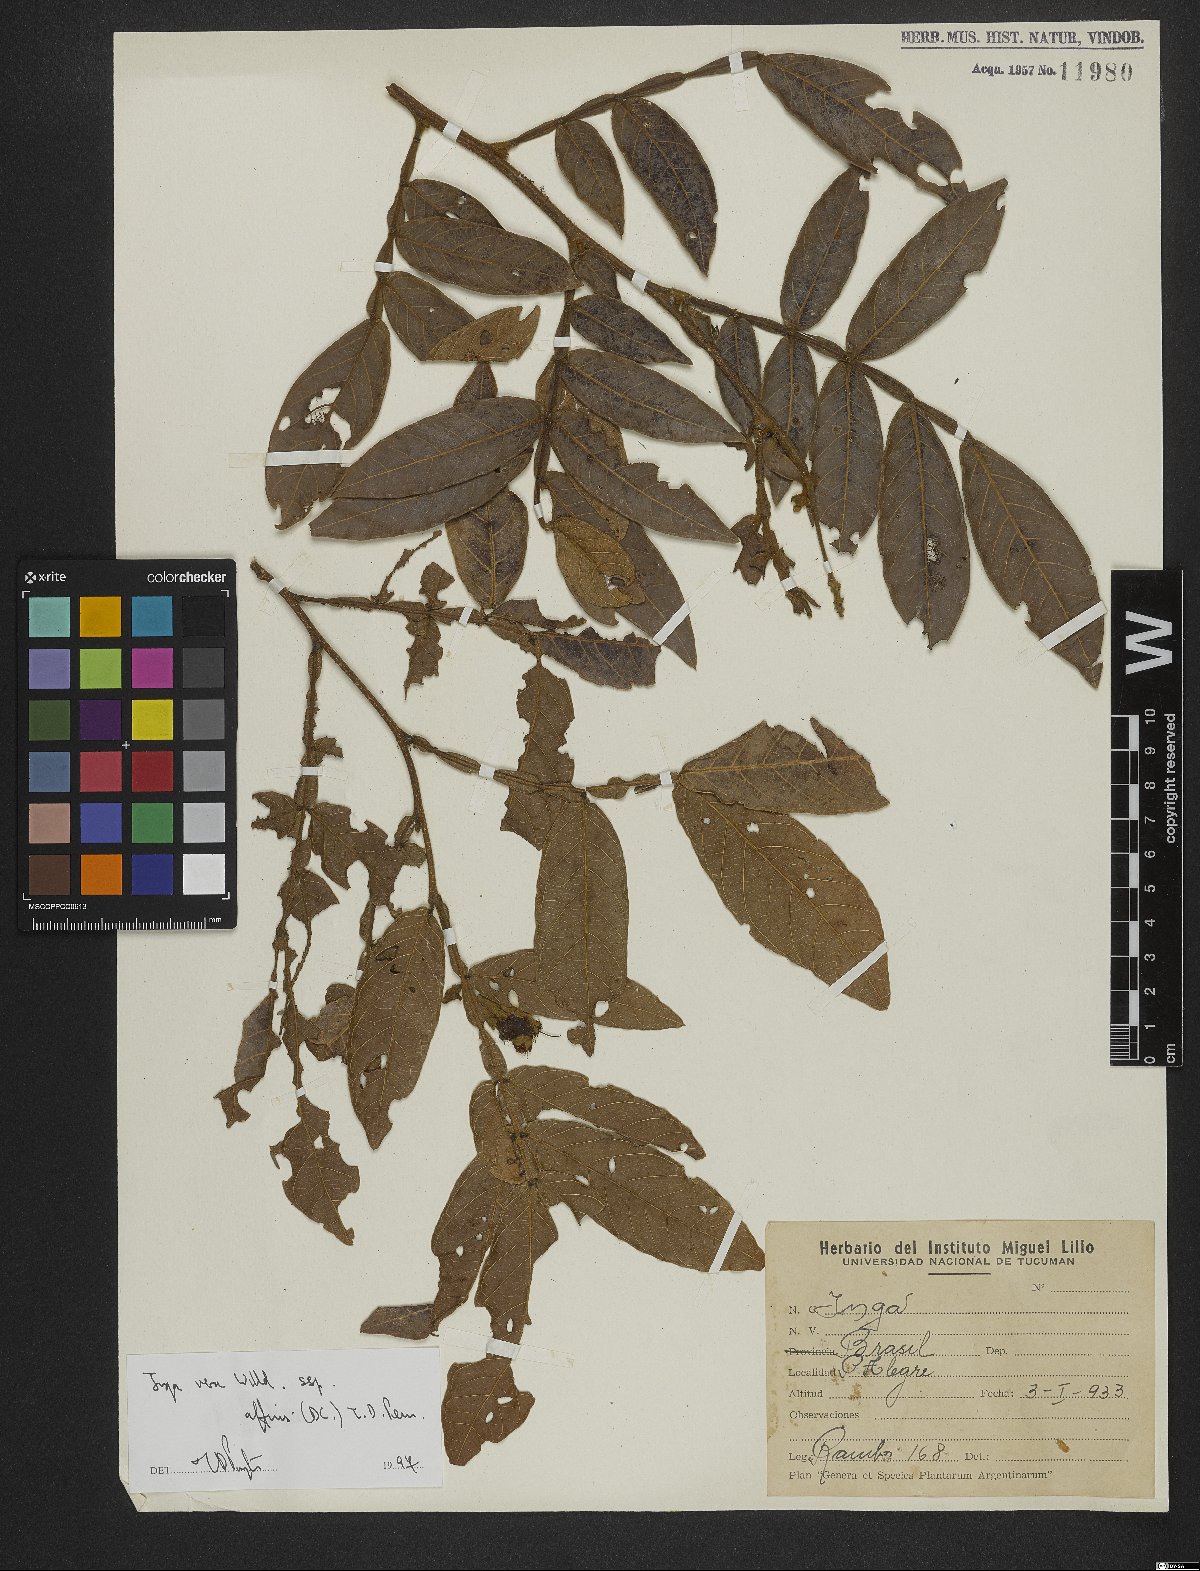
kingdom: Plantae
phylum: Tracheophyta
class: Magnoliopsida
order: Fabales
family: Fabaceae
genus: Inga
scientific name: Inga vera
